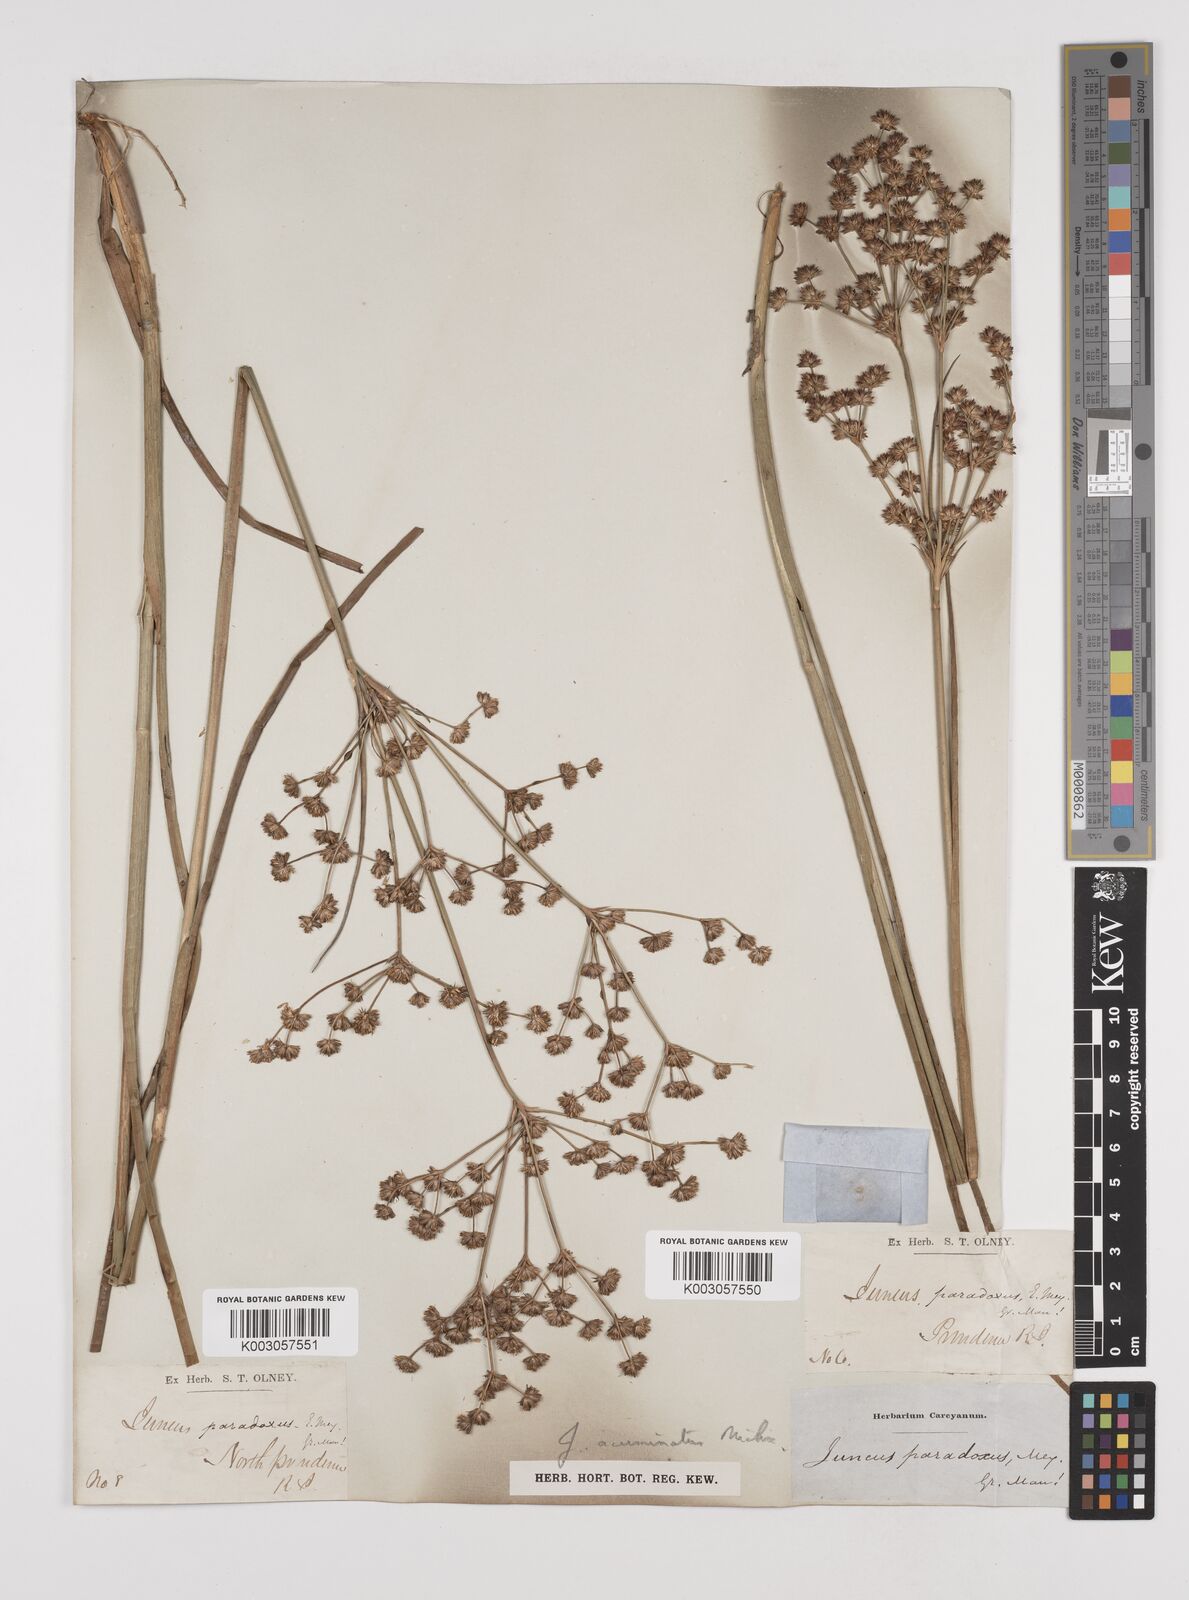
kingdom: Plantae
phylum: Tracheophyta
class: Liliopsida
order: Poales
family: Juncaceae
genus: Juncus
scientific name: Juncus acuminatus
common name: Knotty-leaved rush
